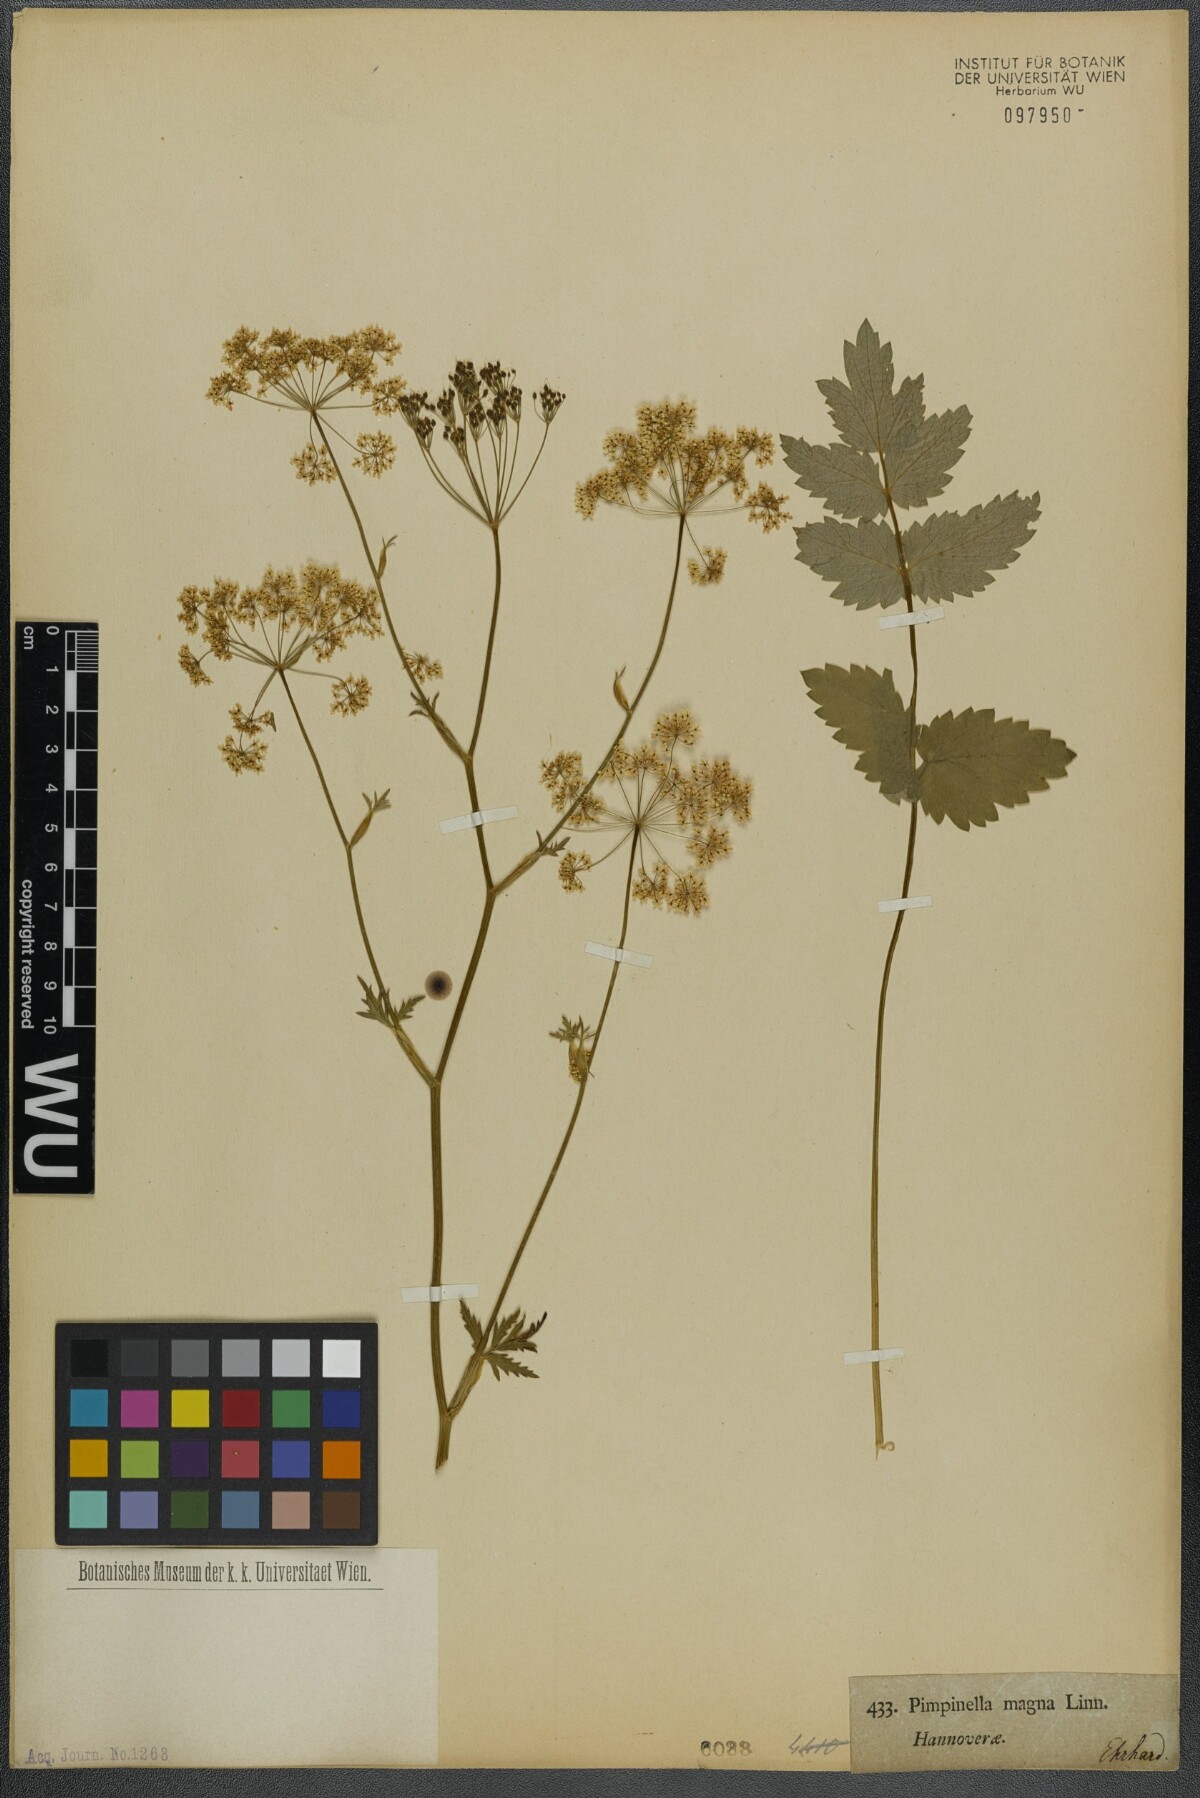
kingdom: Plantae
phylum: Tracheophyta
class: Magnoliopsida
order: Apiales
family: Apiaceae
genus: Pimpinella
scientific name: Pimpinella major
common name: Greater burnet-saxifrage
